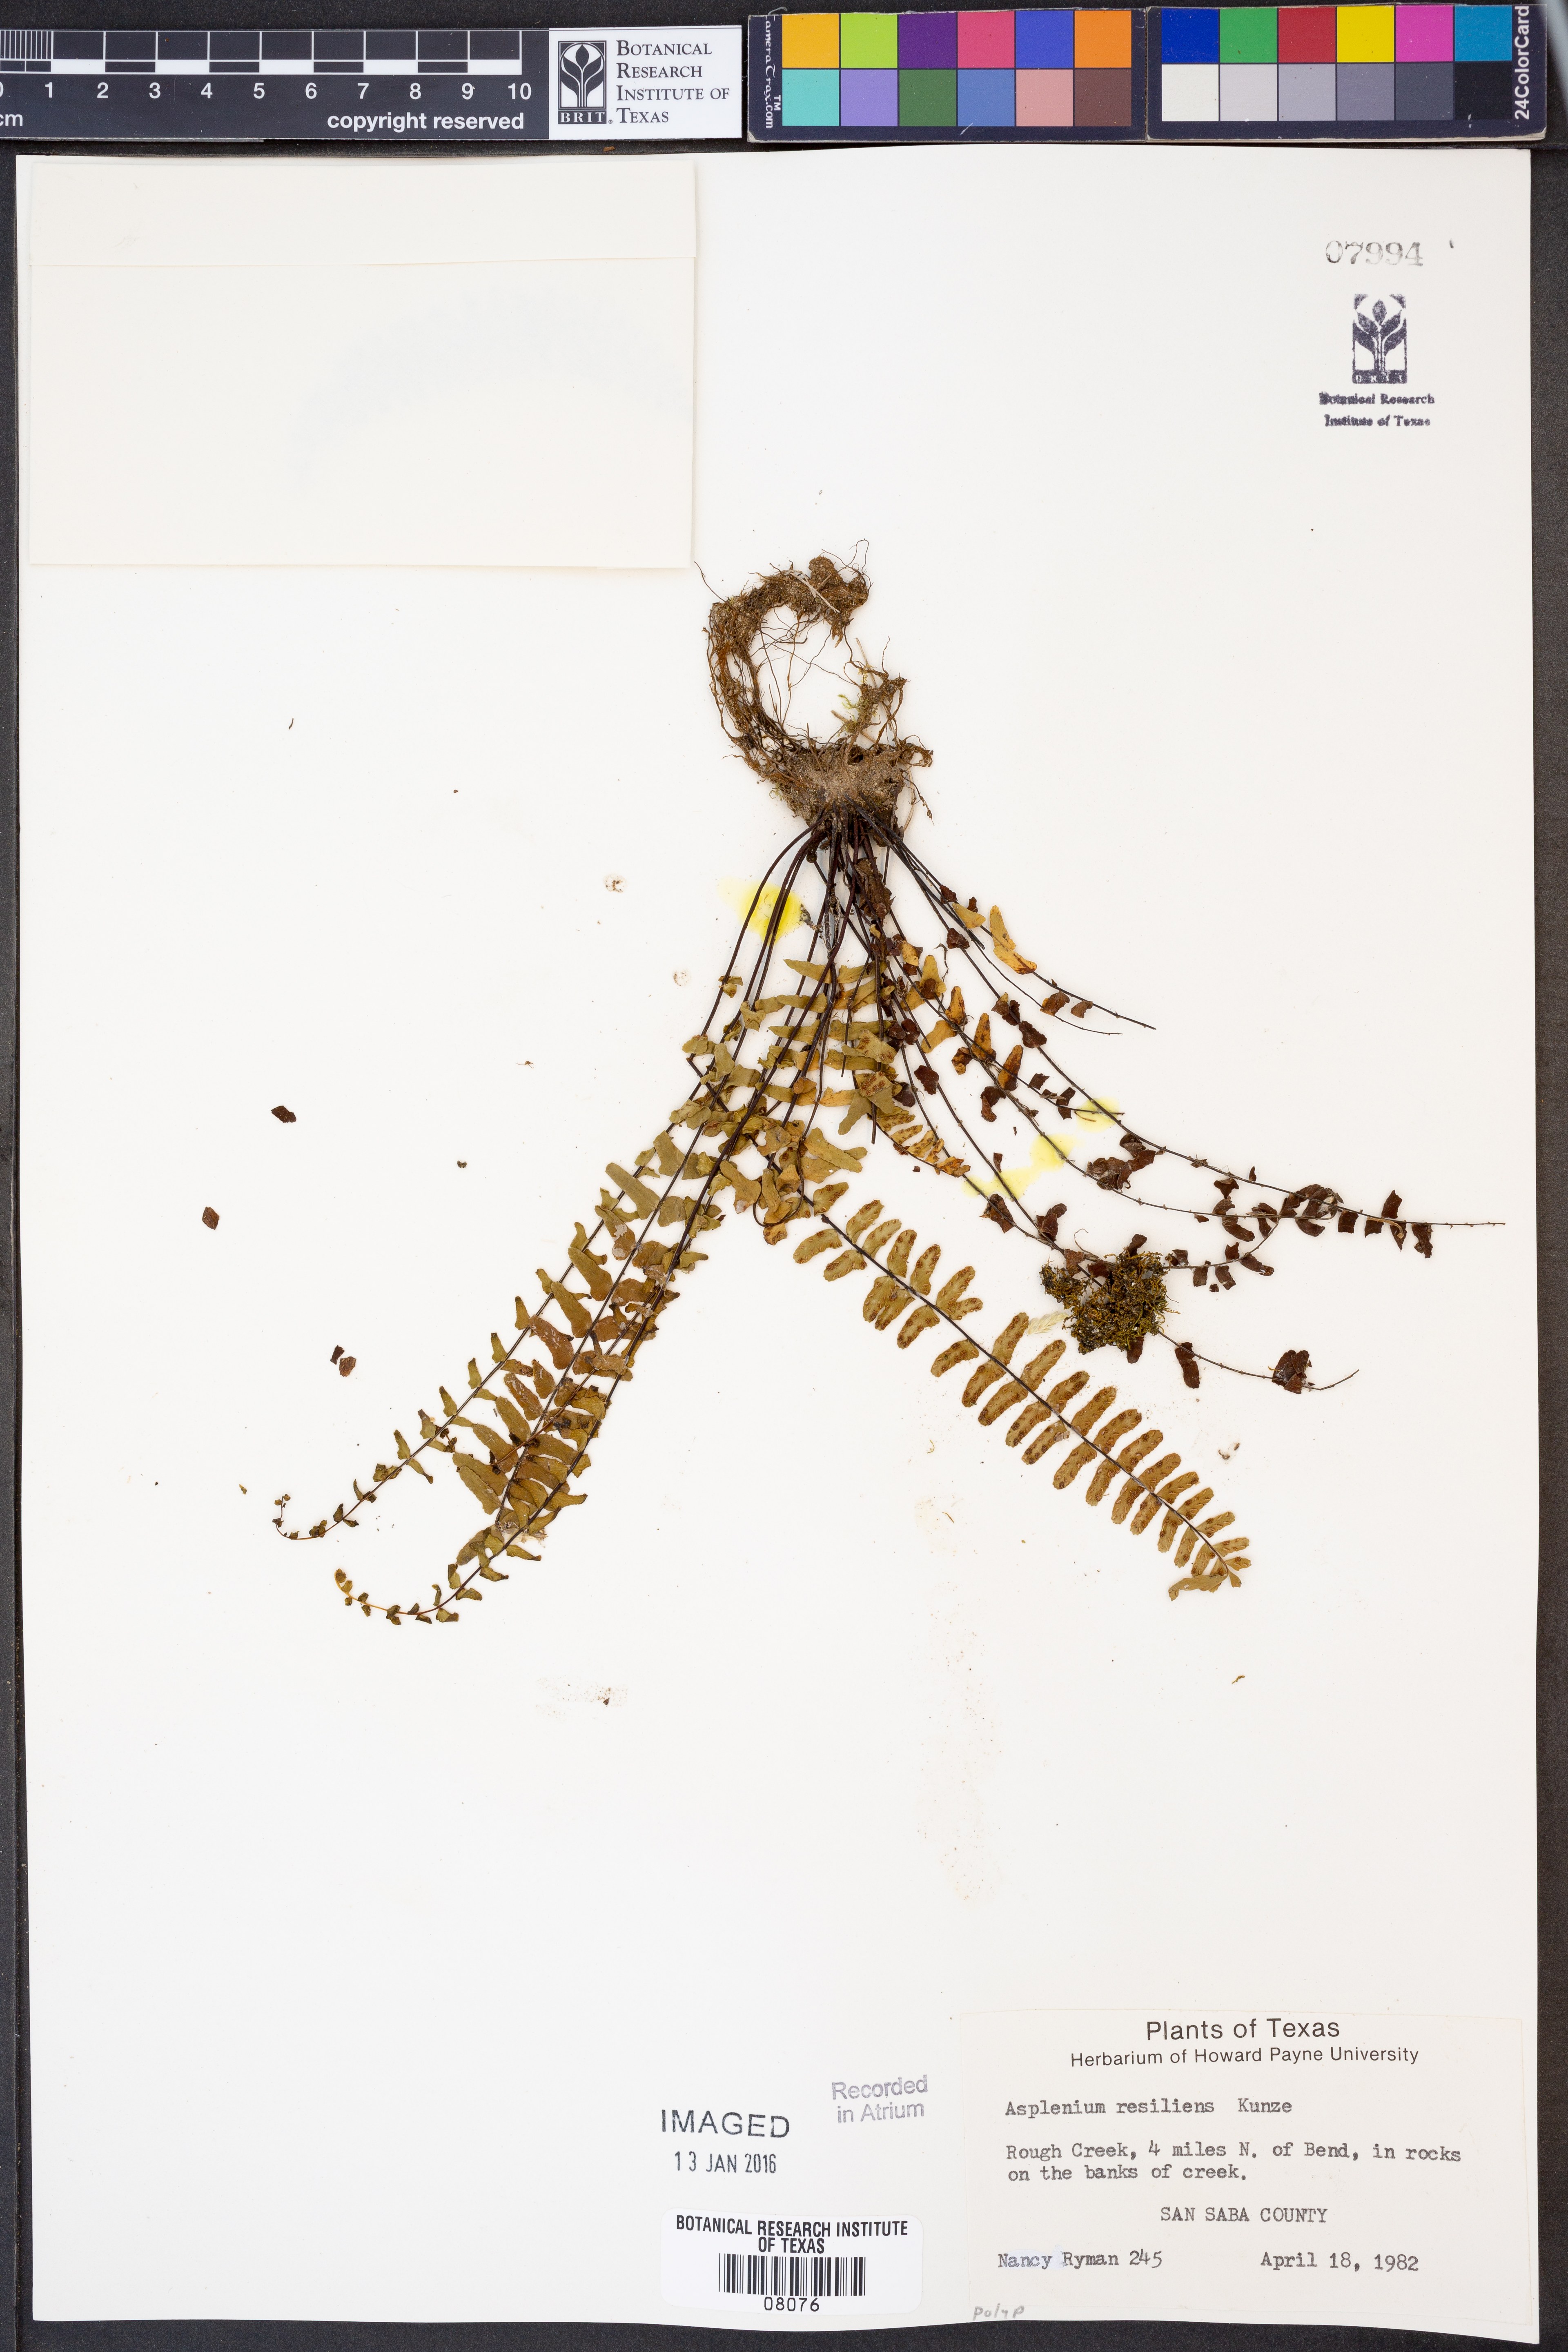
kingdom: Plantae
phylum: Tracheophyta
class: Polypodiopsida
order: Polypodiales
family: Aspleniaceae
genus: Asplenium
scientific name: Asplenium resiliens
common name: Blackstem spleenwort
